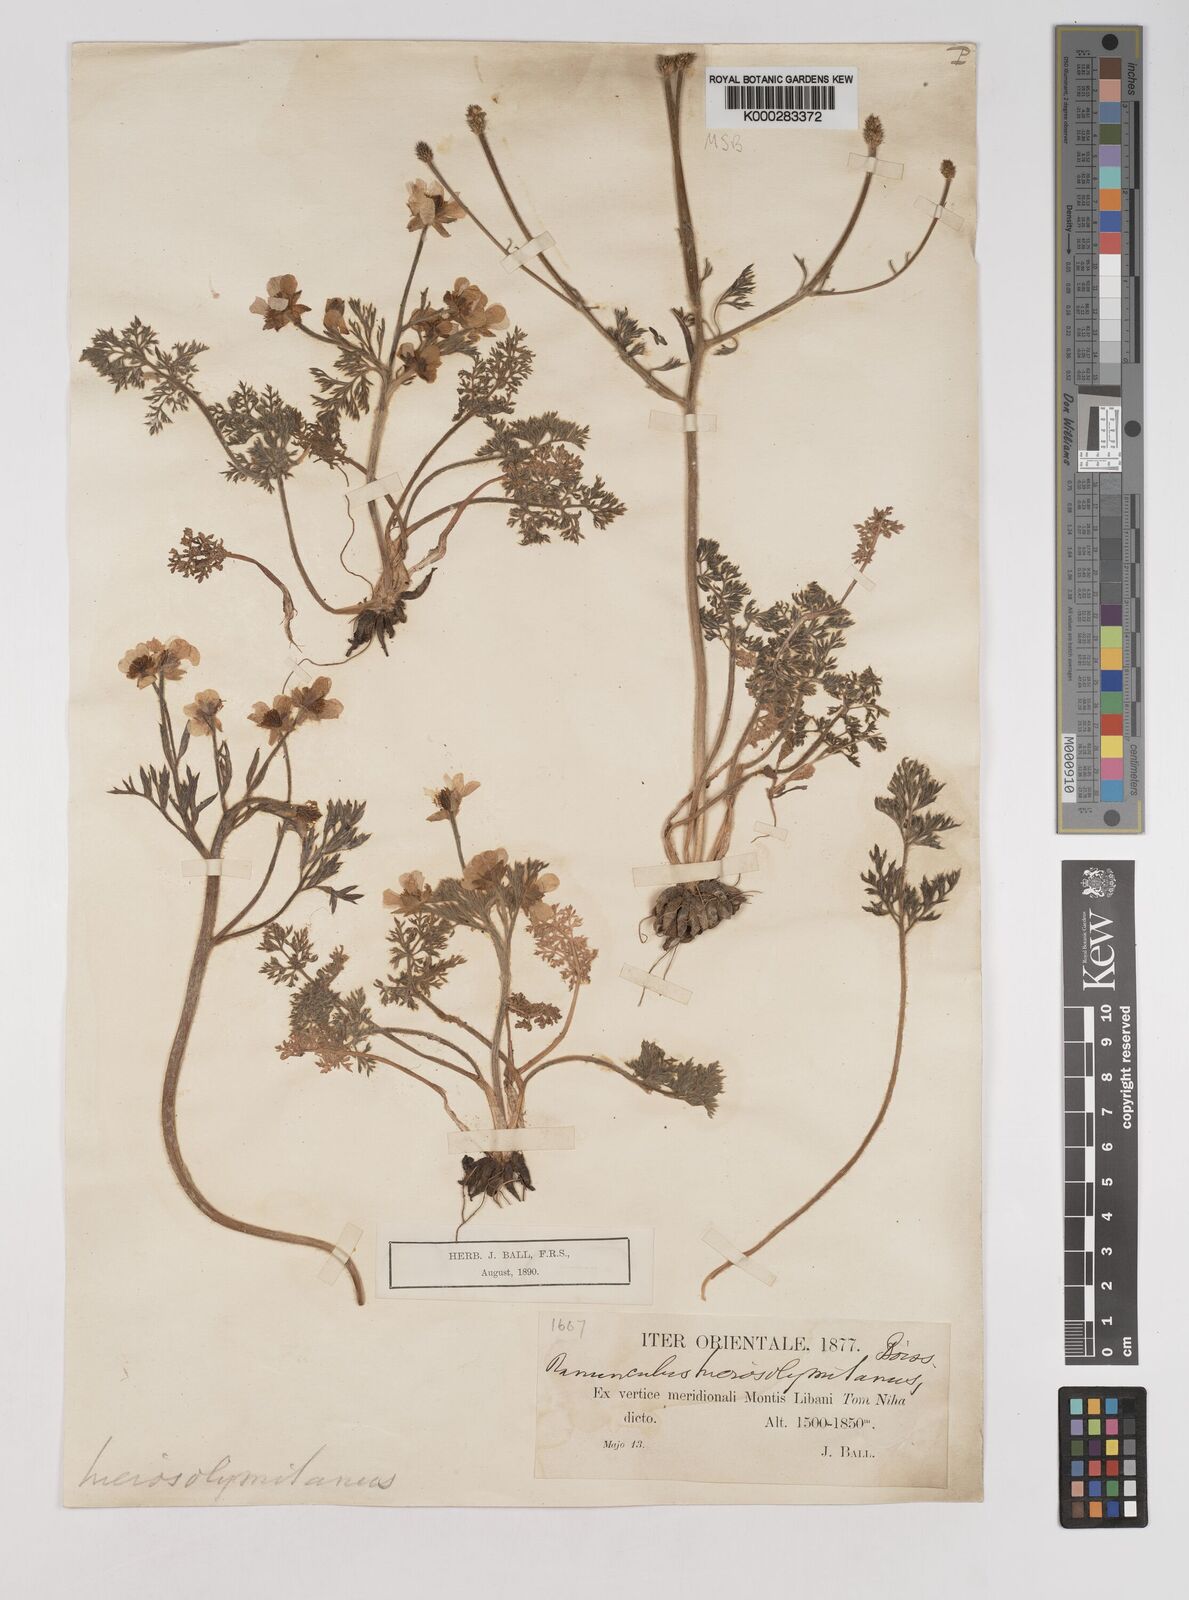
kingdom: Plantae
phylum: Tracheophyta
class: Magnoliopsida
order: Ranunculales
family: Ranunculaceae
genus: Ranunculus
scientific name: Ranunculus millefolius
